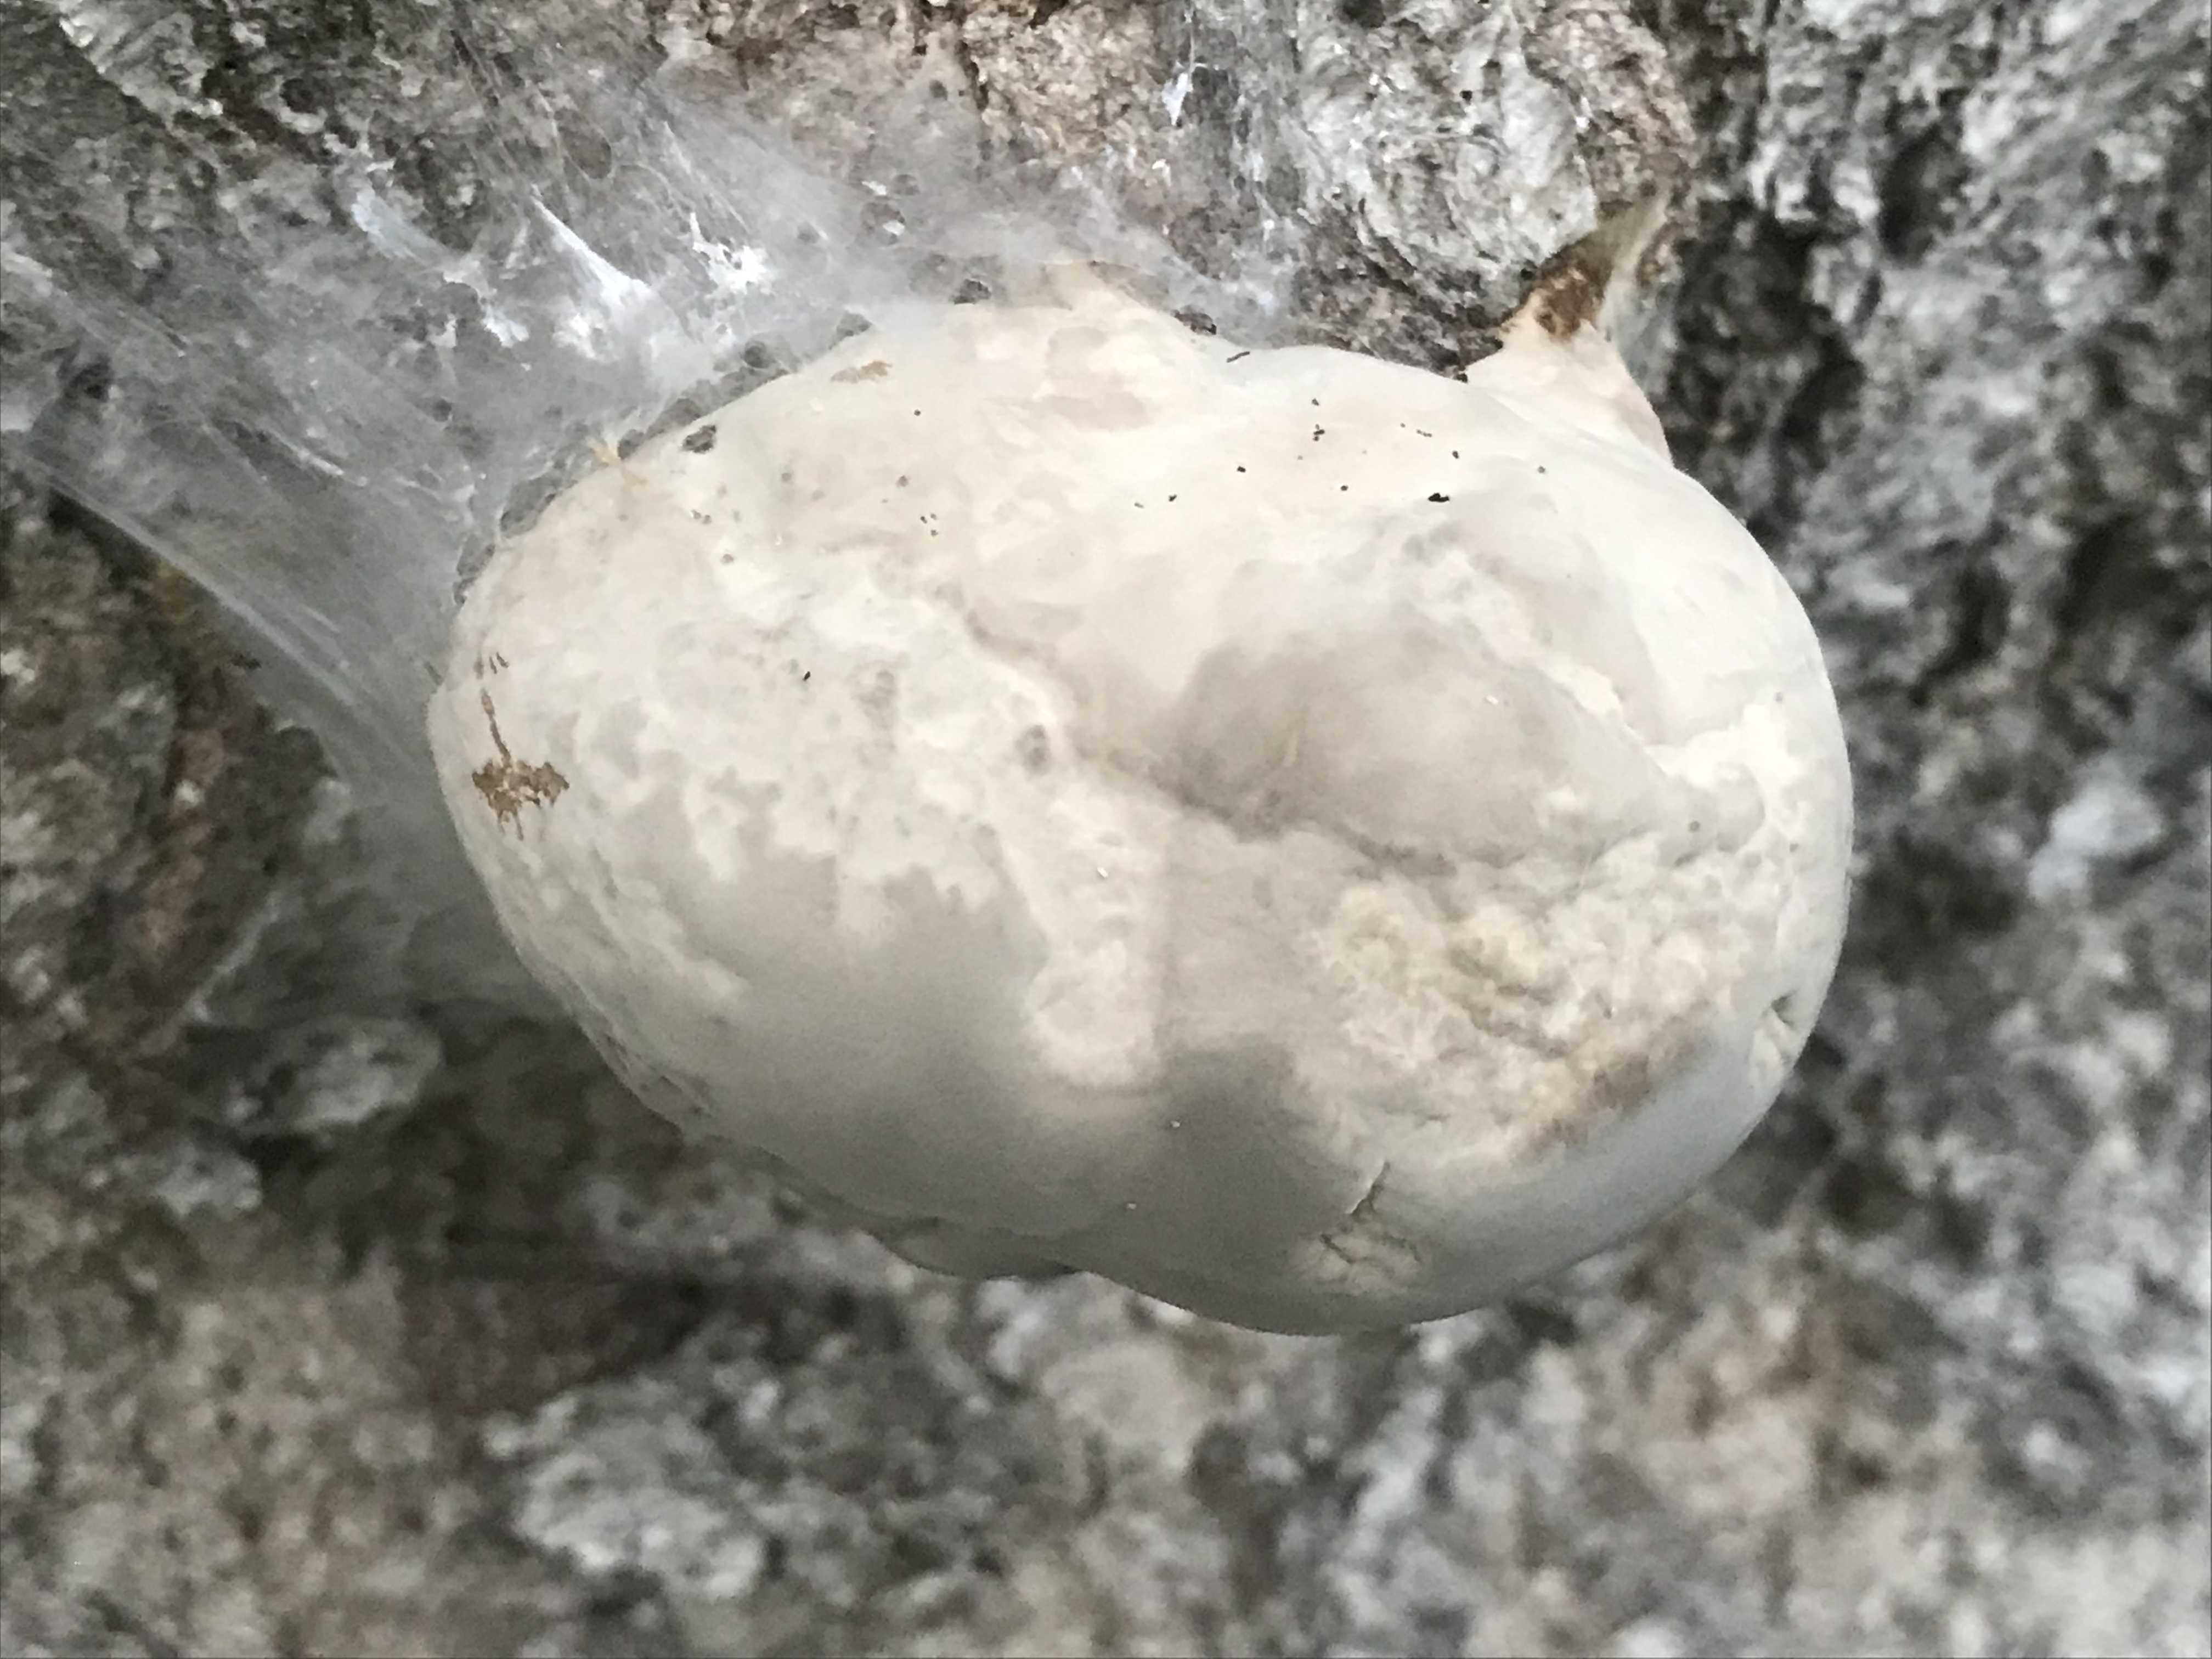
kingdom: Fungi
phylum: Basidiomycota
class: Agaricomycetes
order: Polyporales
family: Fomitopsidaceae
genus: Fomitopsis
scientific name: Fomitopsis pinicola
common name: randbæltet hovporesvamp
